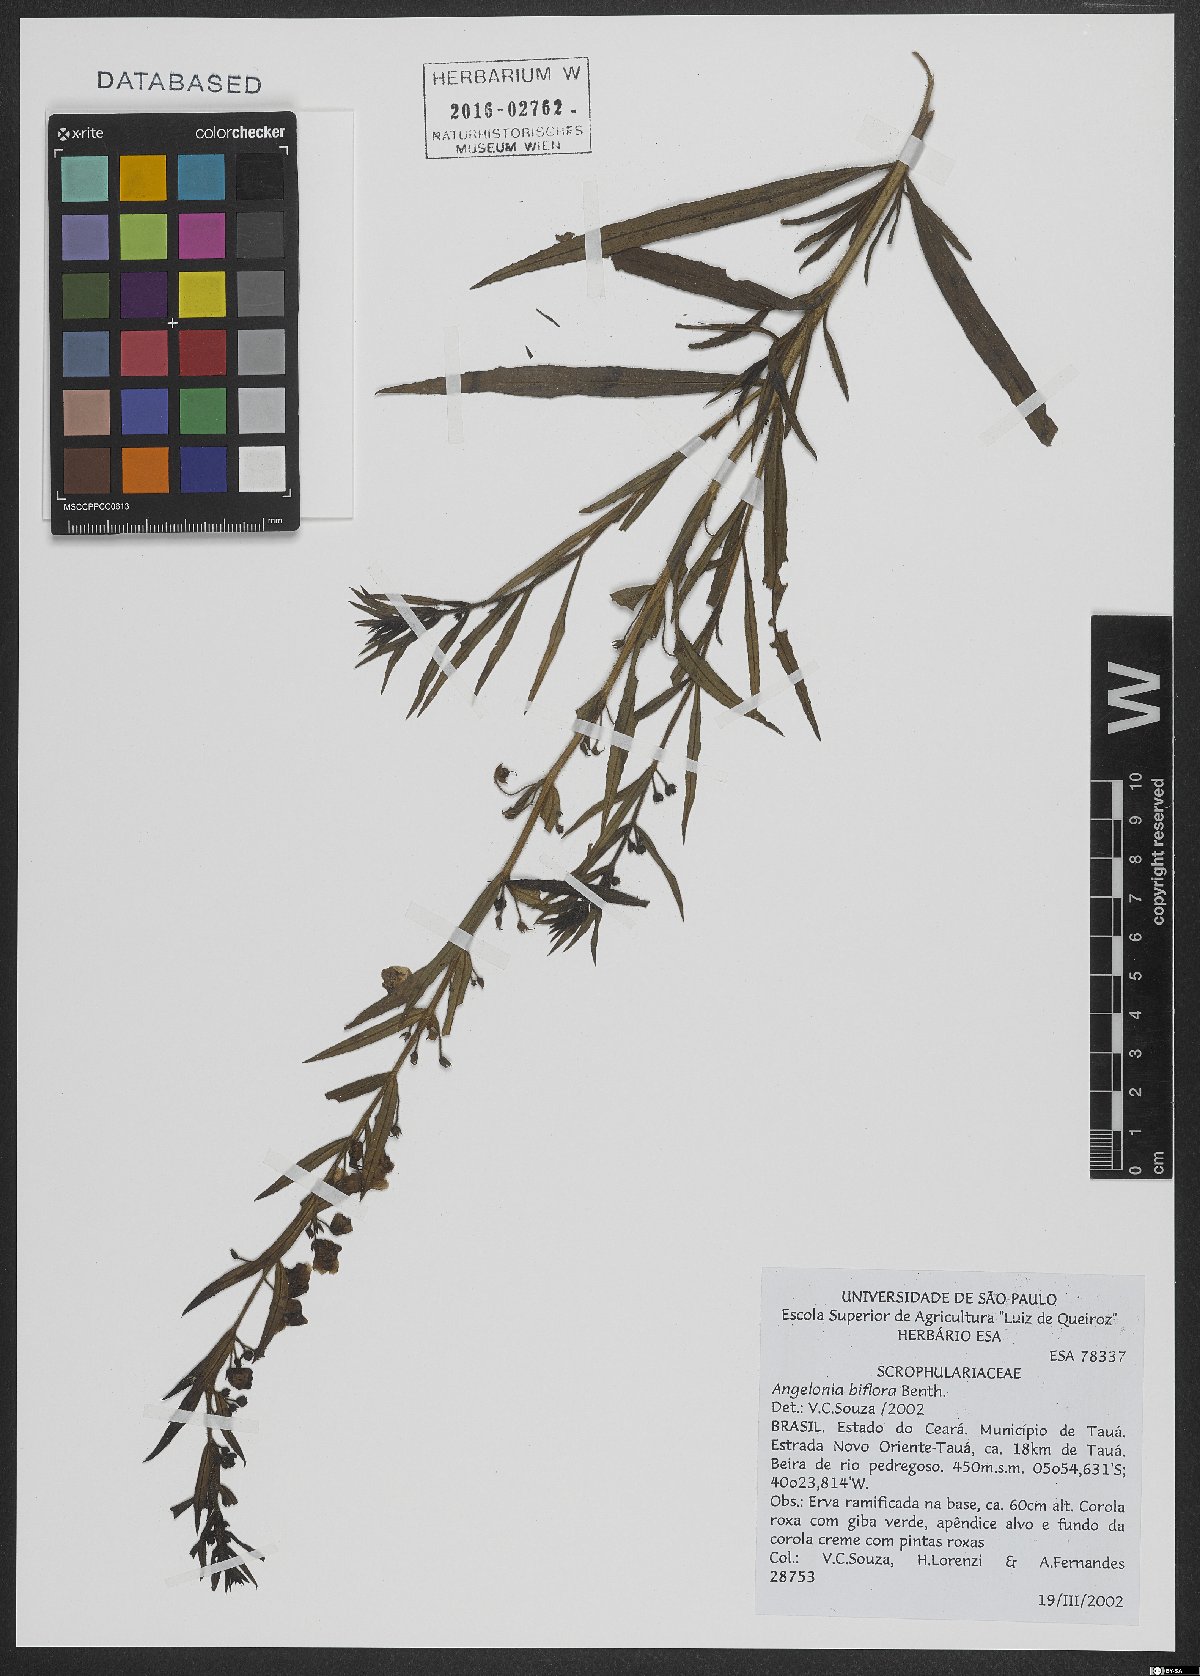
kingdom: Plantae
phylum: Tracheophyta
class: Magnoliopsida
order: Lamiales
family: Plantaginaceae
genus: Angelonia
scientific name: Angelonia biflora
